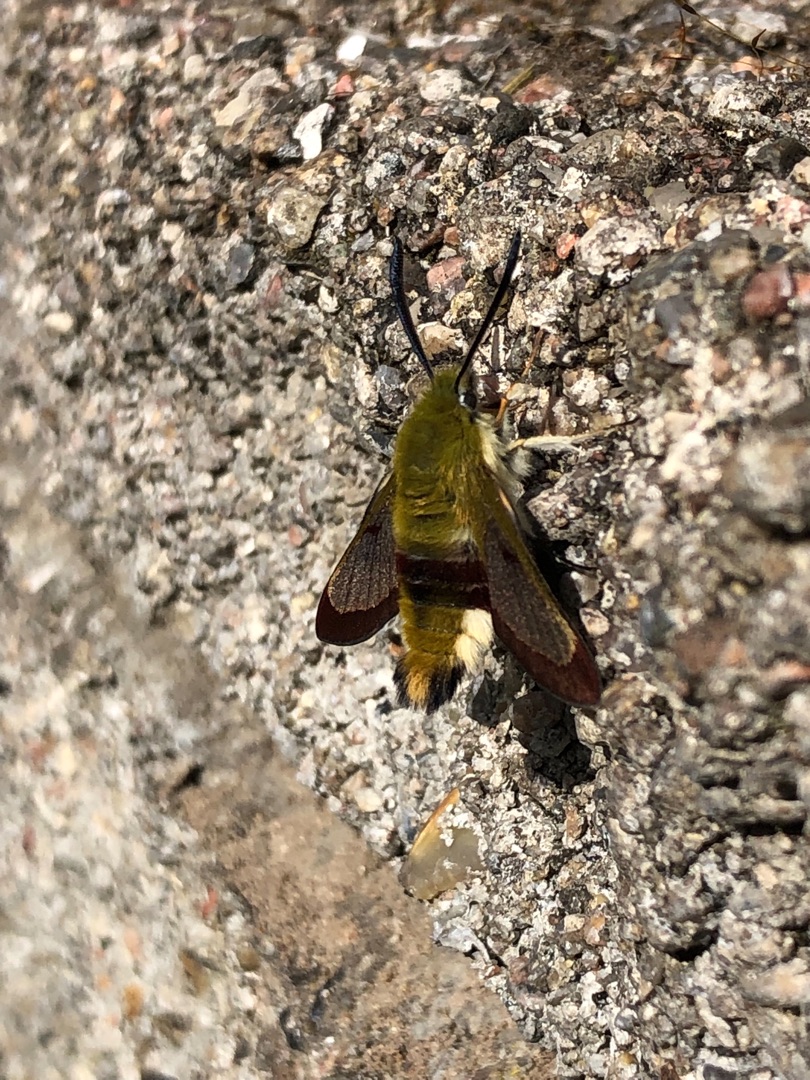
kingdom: Animalia
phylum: Arthropoda
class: Insecta
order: Lepidoptera
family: Sphingidae
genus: Hemaris
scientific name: Hemaris fuciformis
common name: Bredrandet humlebisværmer
